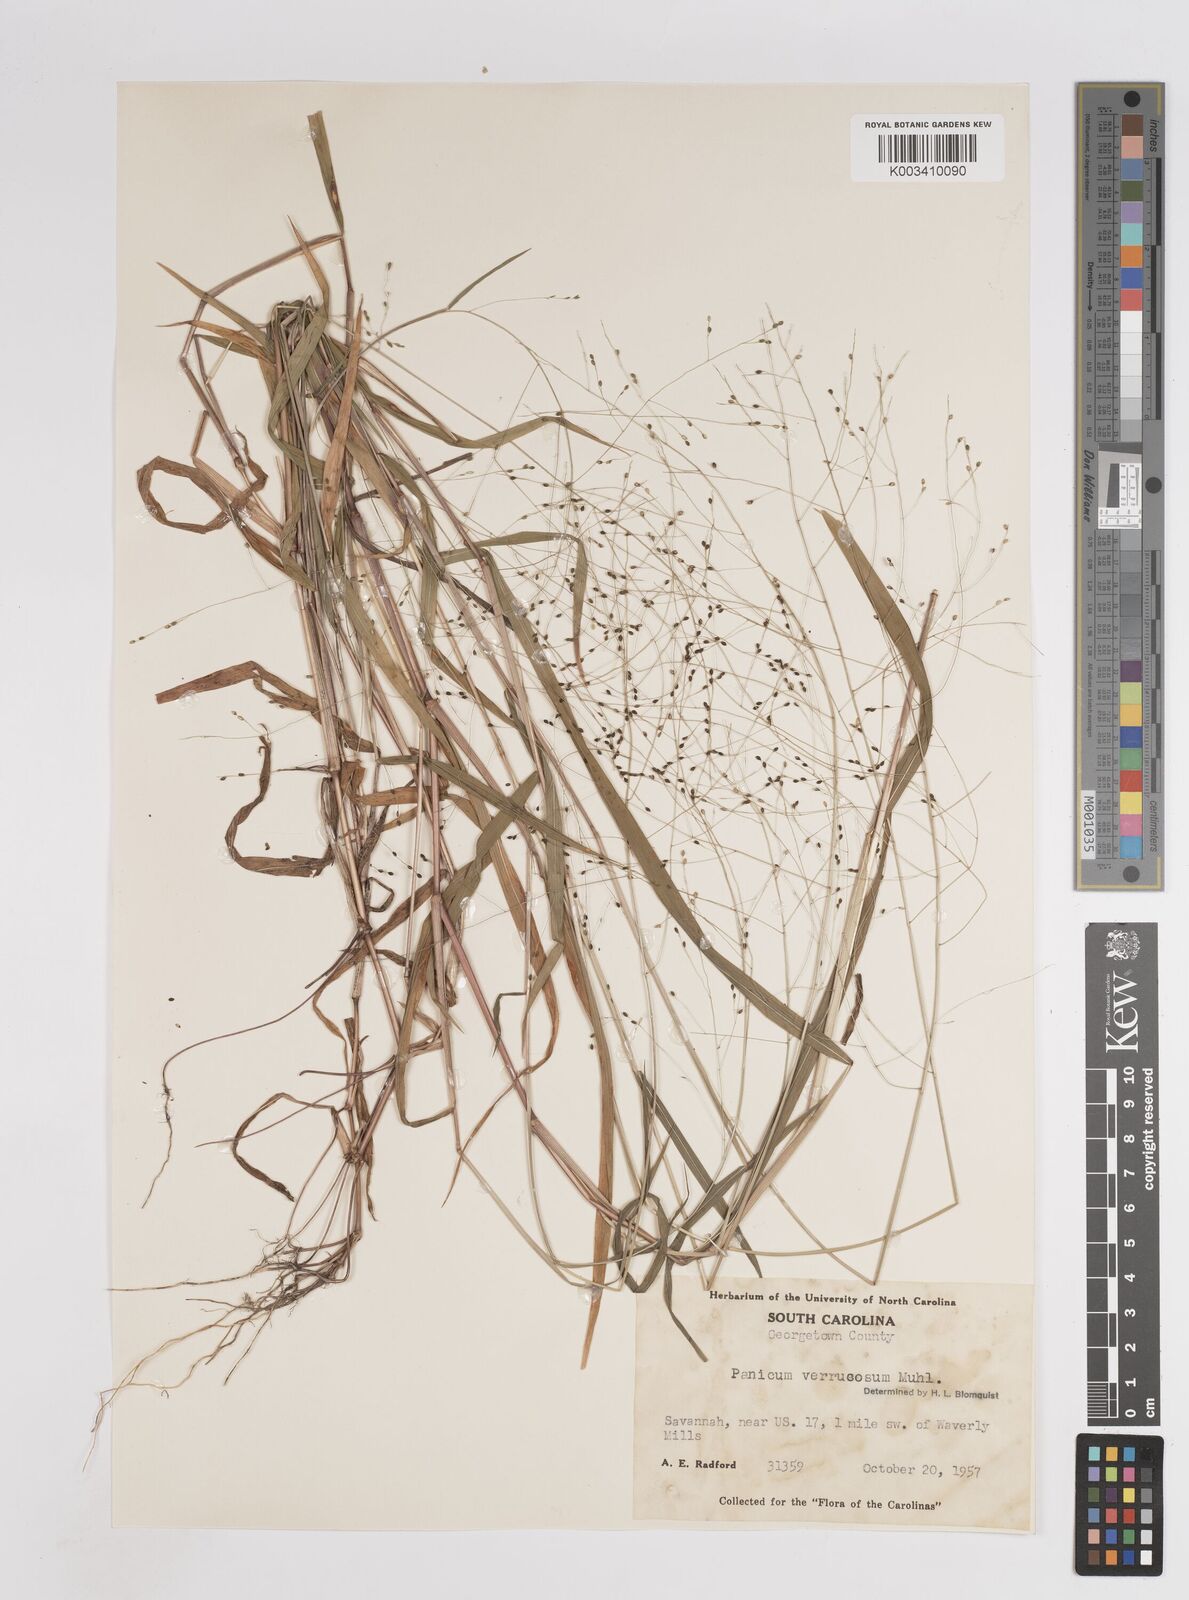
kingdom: Plantae
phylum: Tracheophyta
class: Liliopsida
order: Poales
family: Poaceae
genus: Kellochloa
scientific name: Kellochloa verrucosa
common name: Warty panic grass
